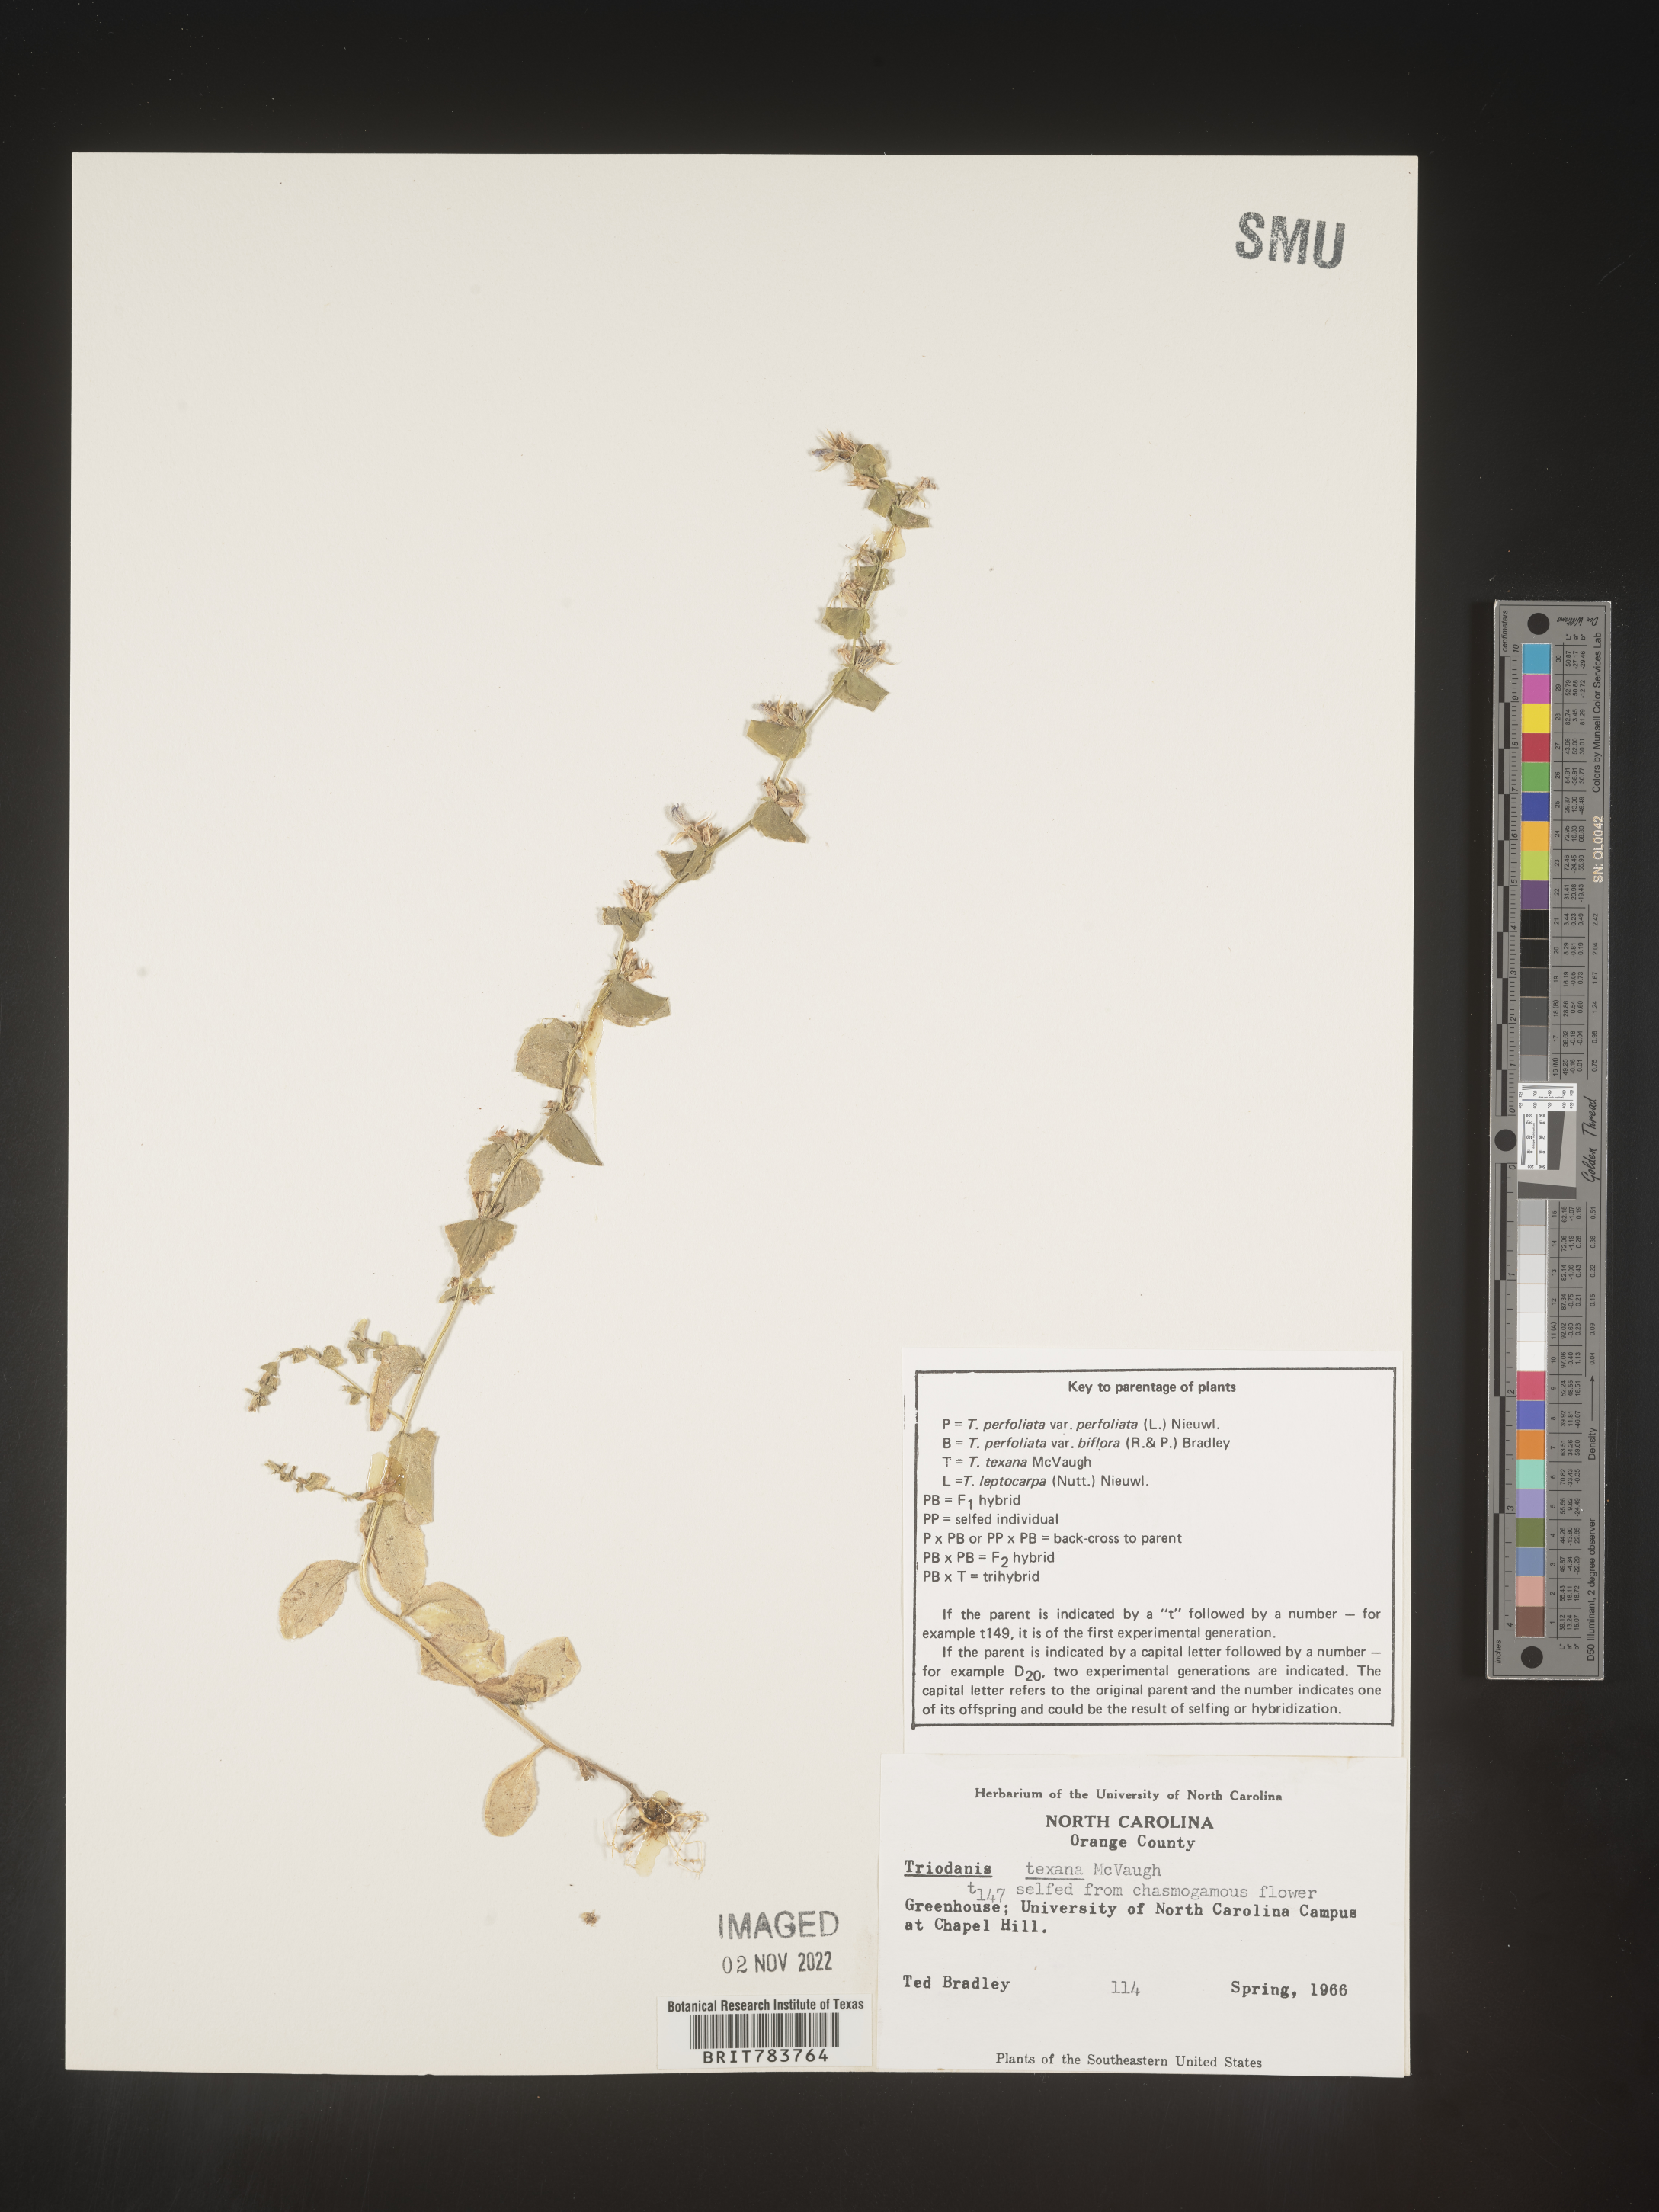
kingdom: Plantae
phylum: Tracheophyta
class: Magnoliopsida
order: Asterales
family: Campanulaceae
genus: Triodanis
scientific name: Triodanis
